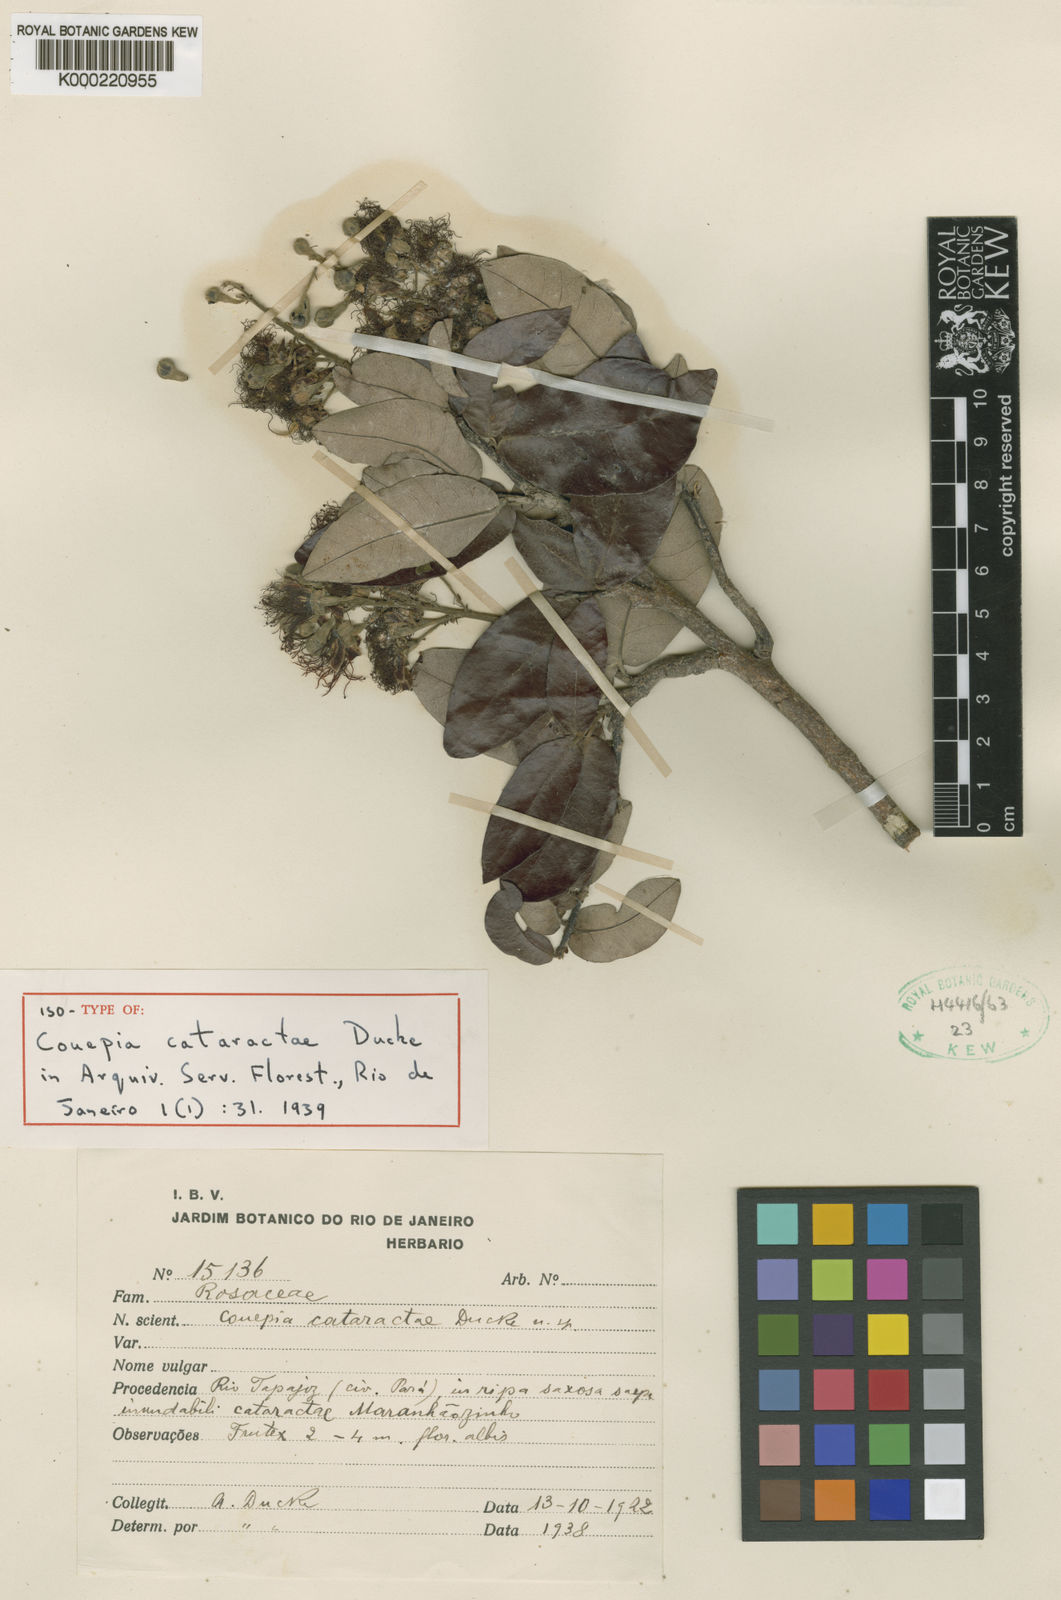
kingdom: Plantae
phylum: Tracheophyta
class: Magnoliopsida
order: Malpighiales
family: Chrysobalanaceae
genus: Couepia
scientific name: Couepia cataractae
